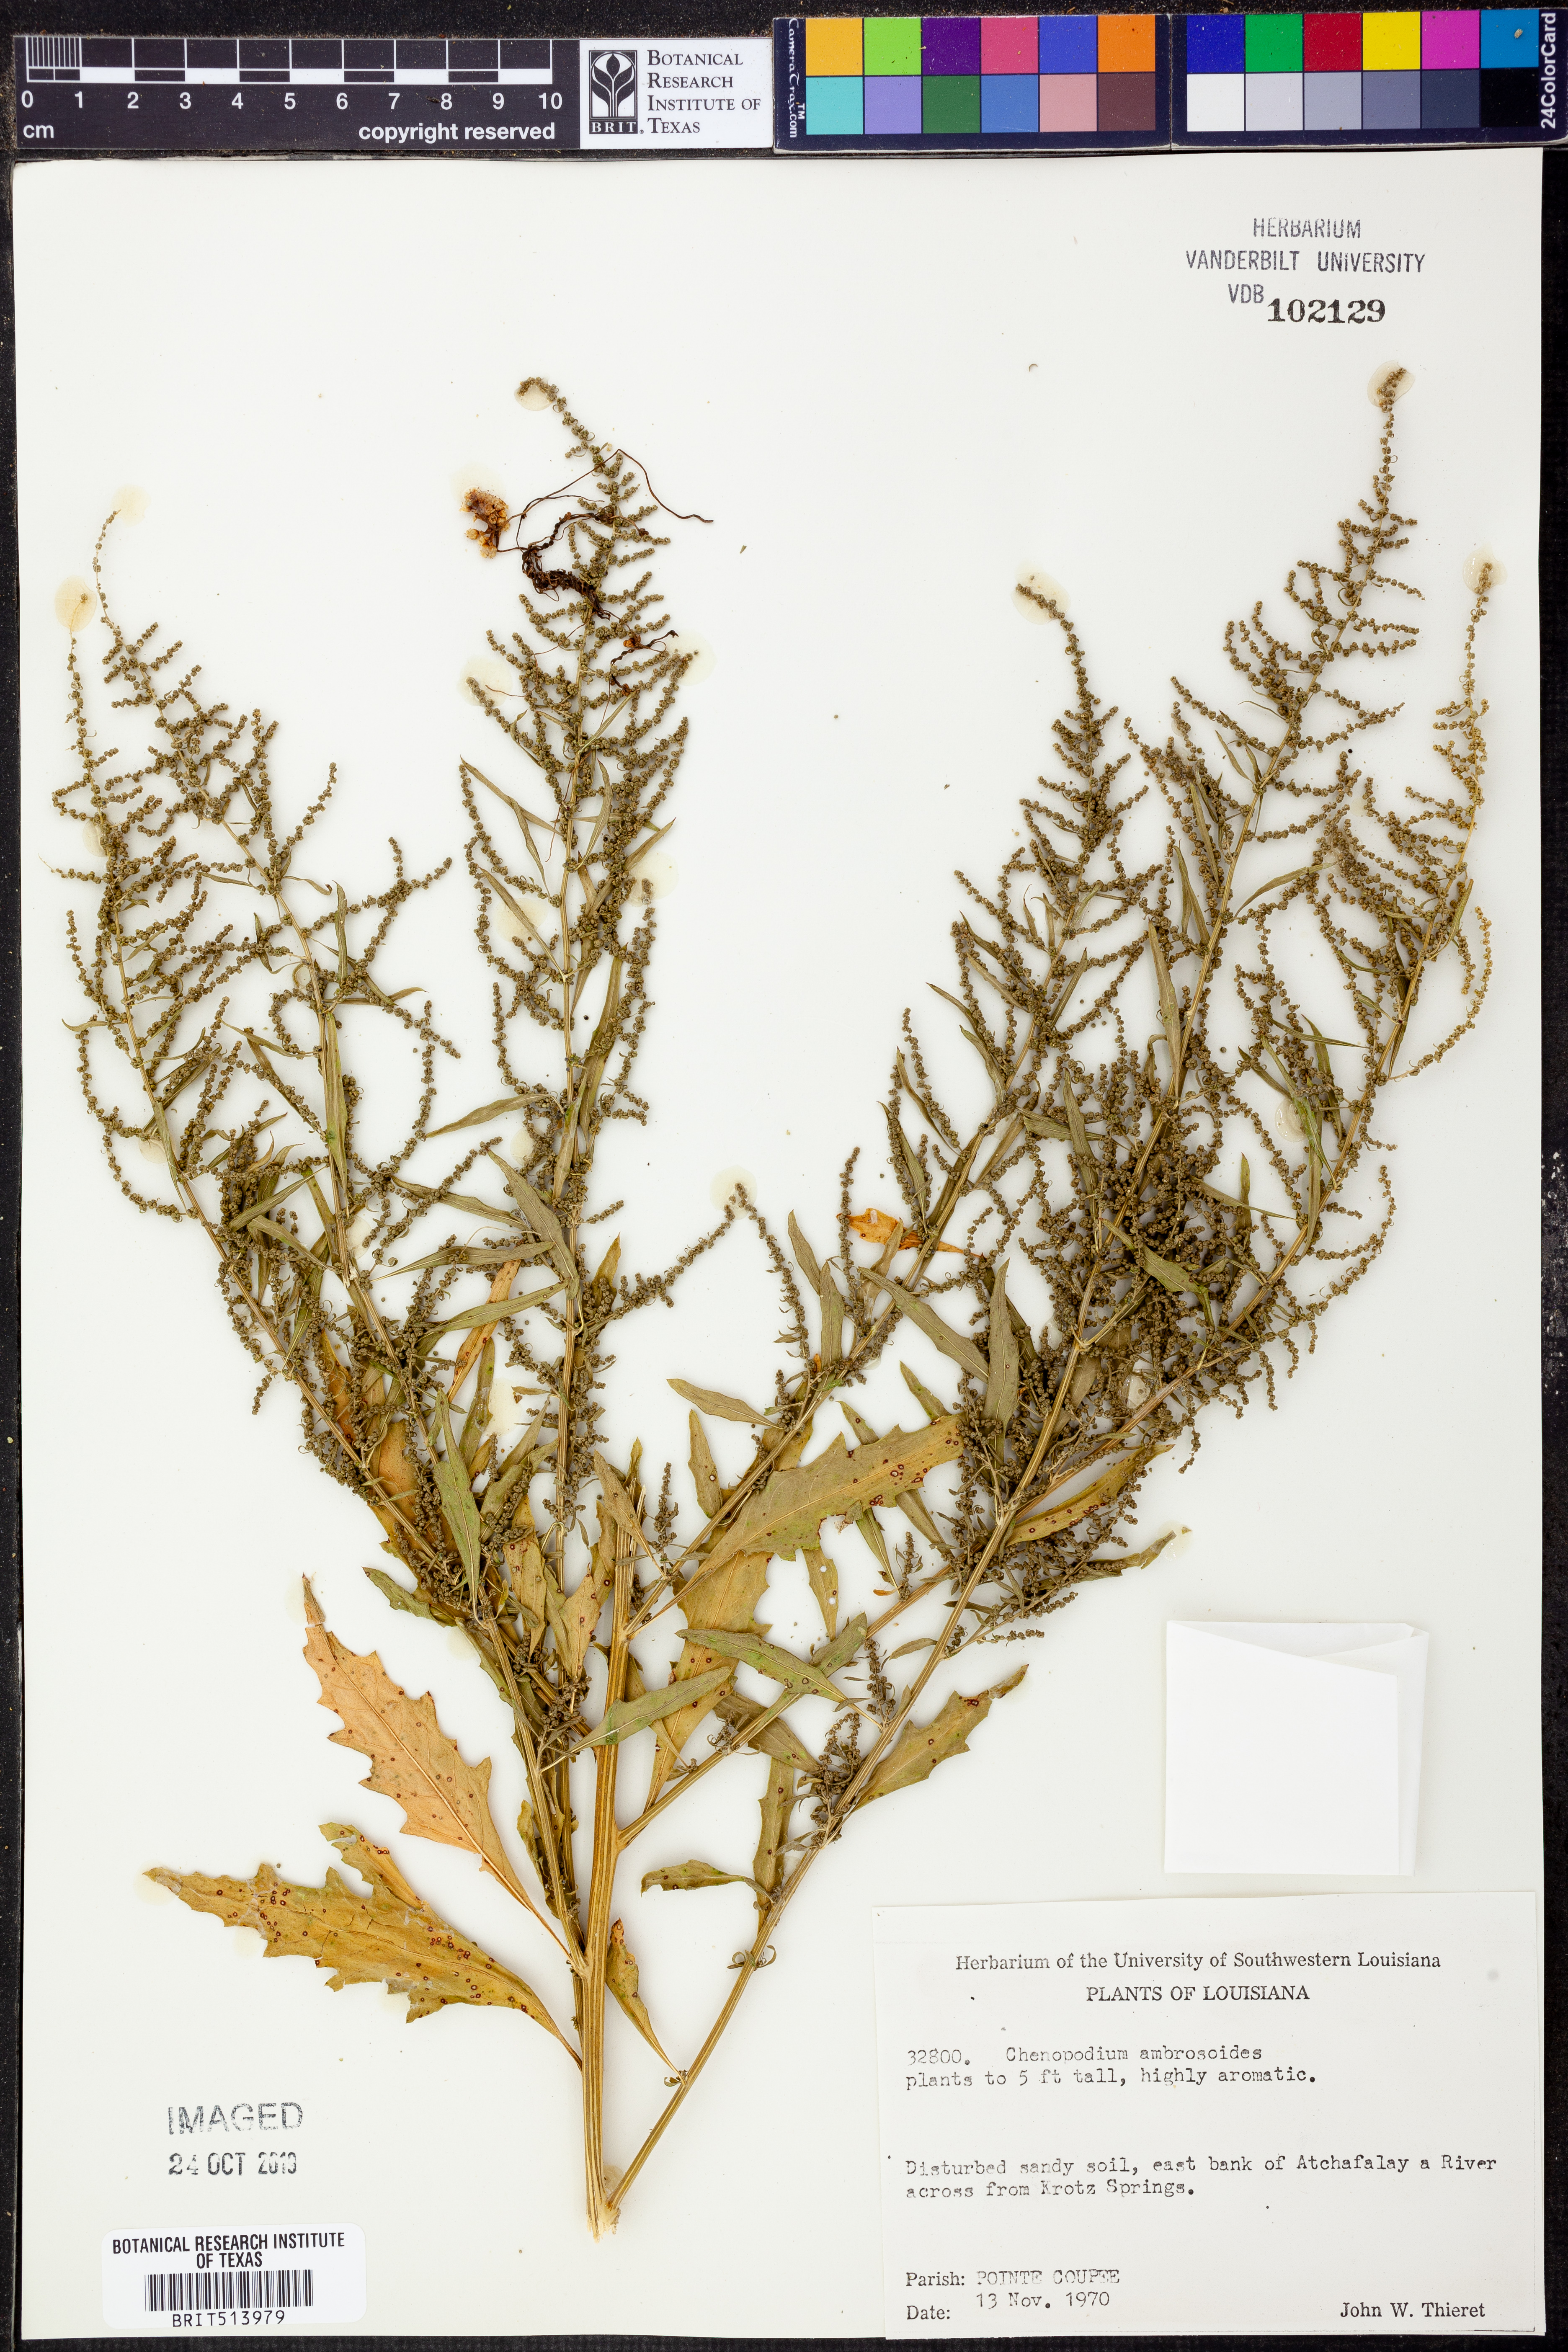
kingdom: Plantae
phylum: Tracheophyta
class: Magnoliopsida
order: Caryophyllales
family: Amaranthaceae
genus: Dysphania
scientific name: Dysphania ambrosioides
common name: Wormseed
